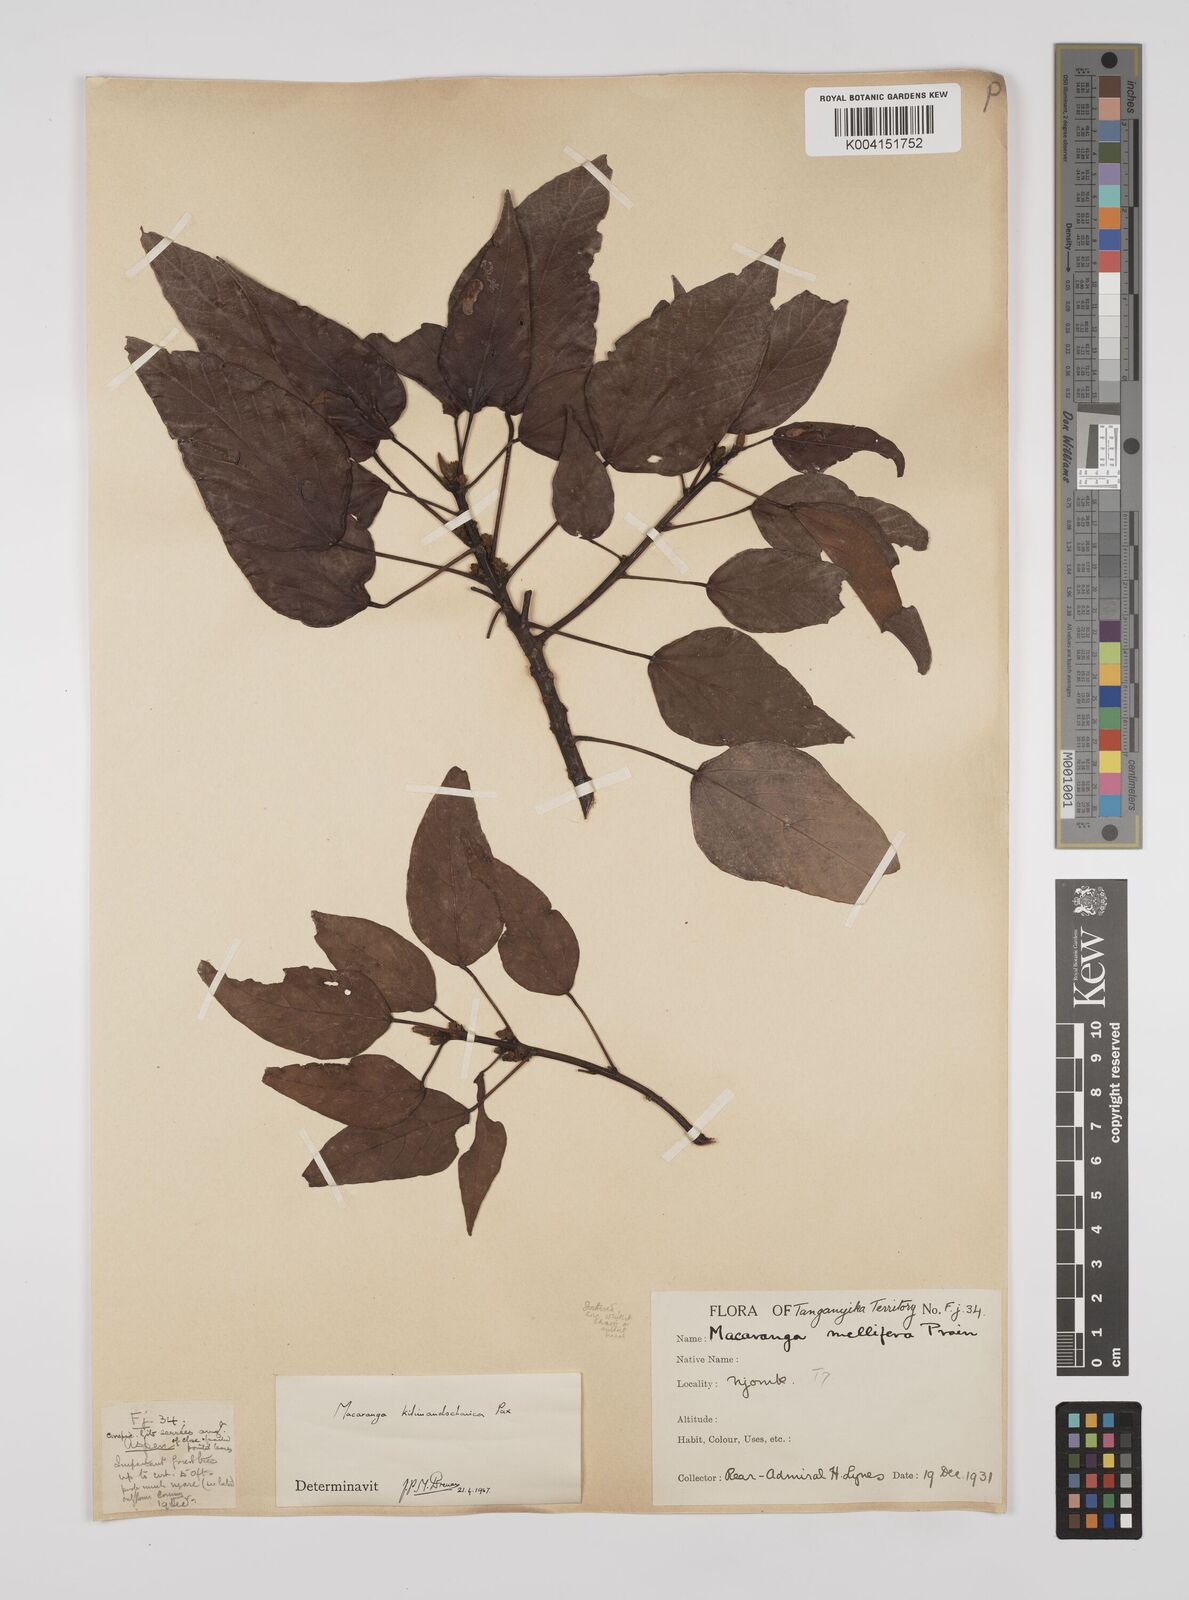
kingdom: Plantae
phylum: Tracheophyta
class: Magnoliopsida
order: Malpighiales
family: Euphorbiaceae
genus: Macaranga
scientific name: Macaranga kilimandscharica
